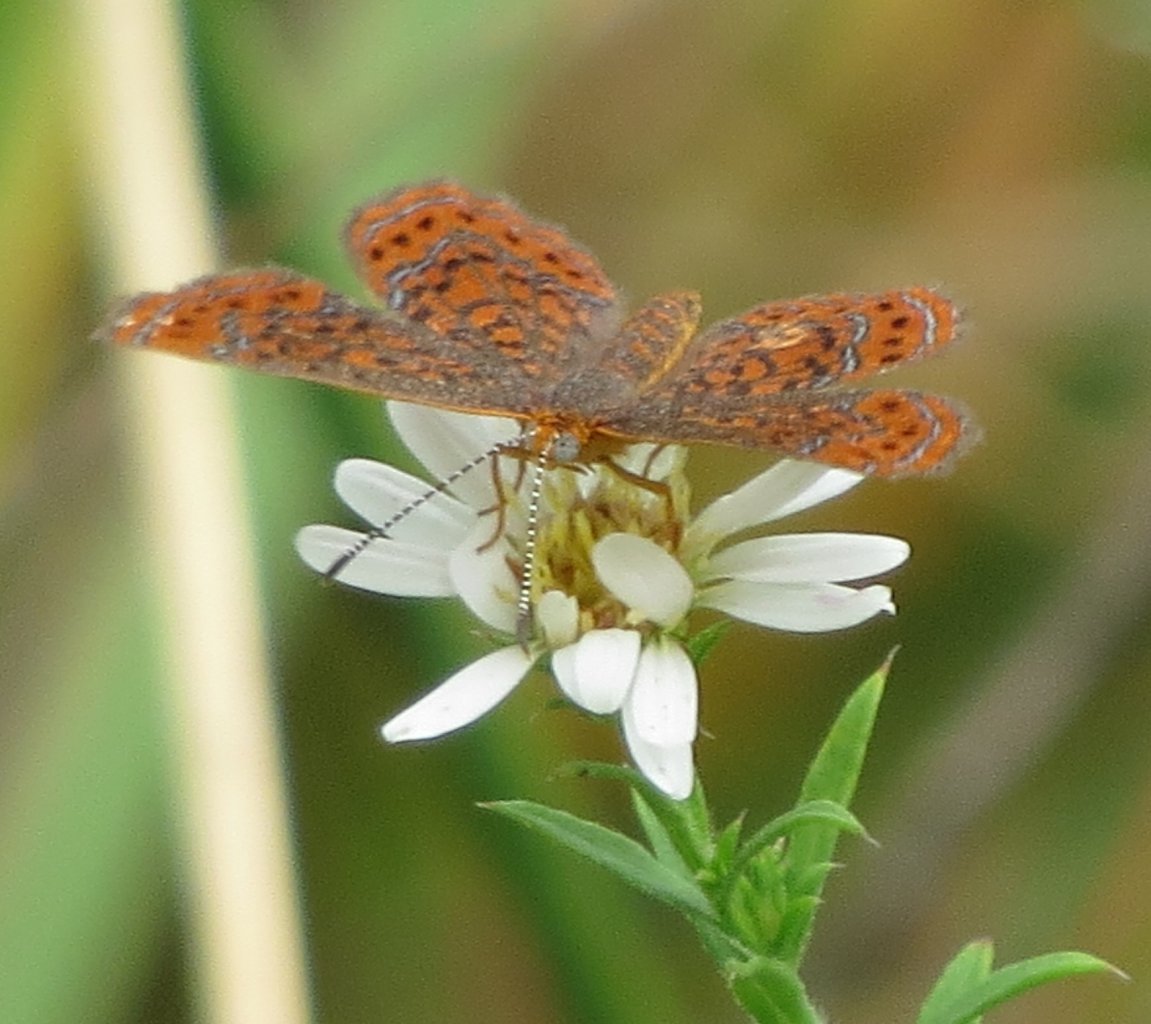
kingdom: Animalia
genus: Calephelis
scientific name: Calephelis virginiensis
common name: Little Metalmark
